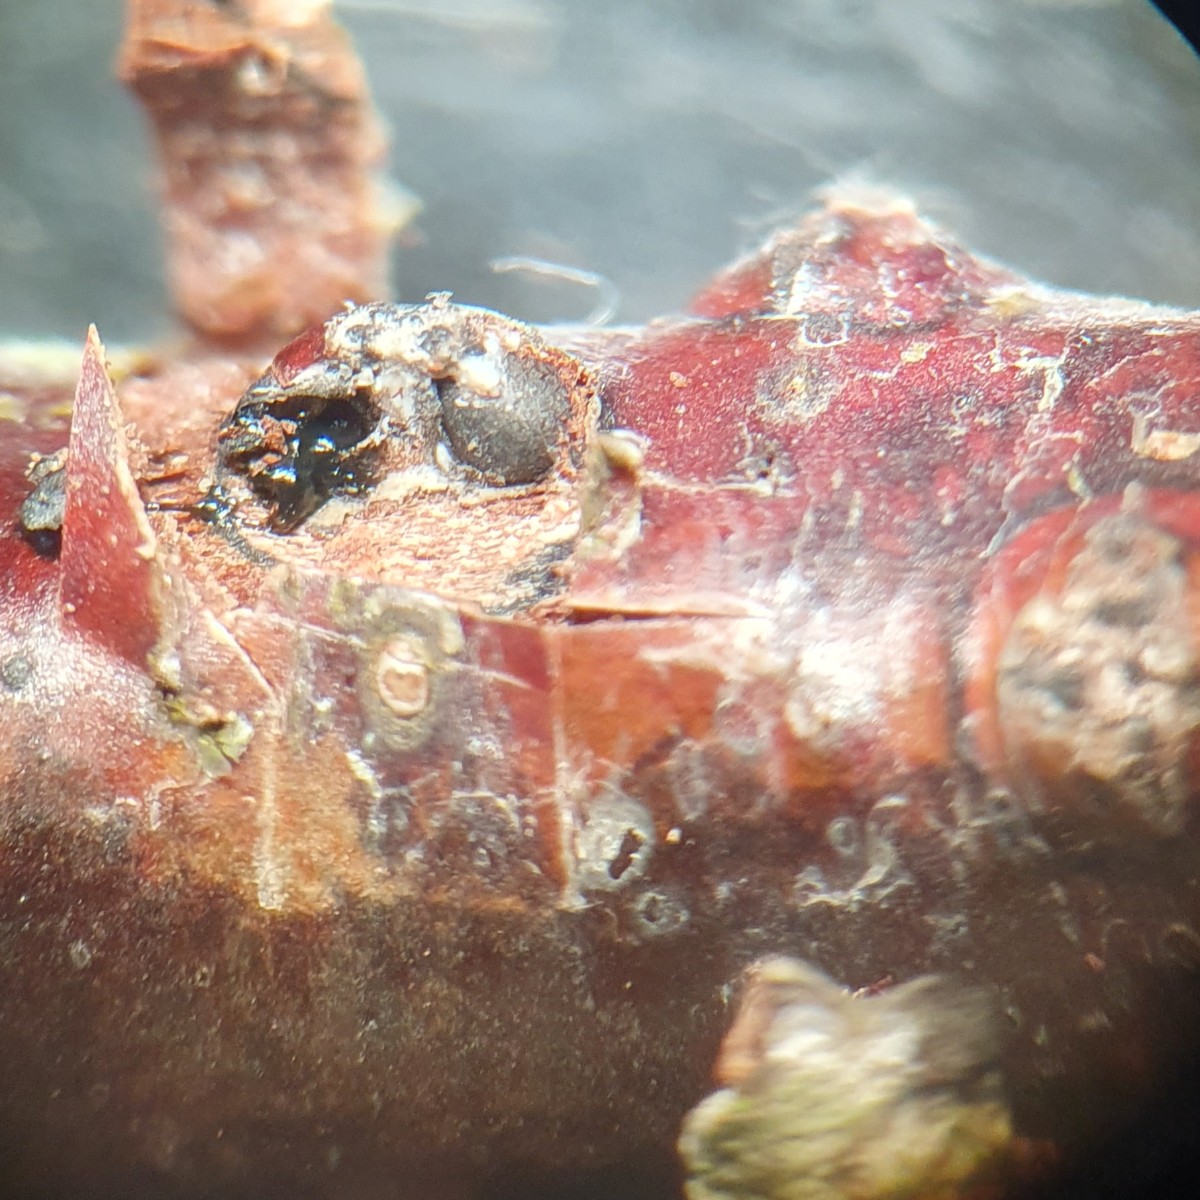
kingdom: Fungi
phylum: Ascomycota
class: Sordariomycetes
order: Xylariales
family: Diatrypaceae
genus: Diatrypella
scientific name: Diatrypella
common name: kulskorpe
